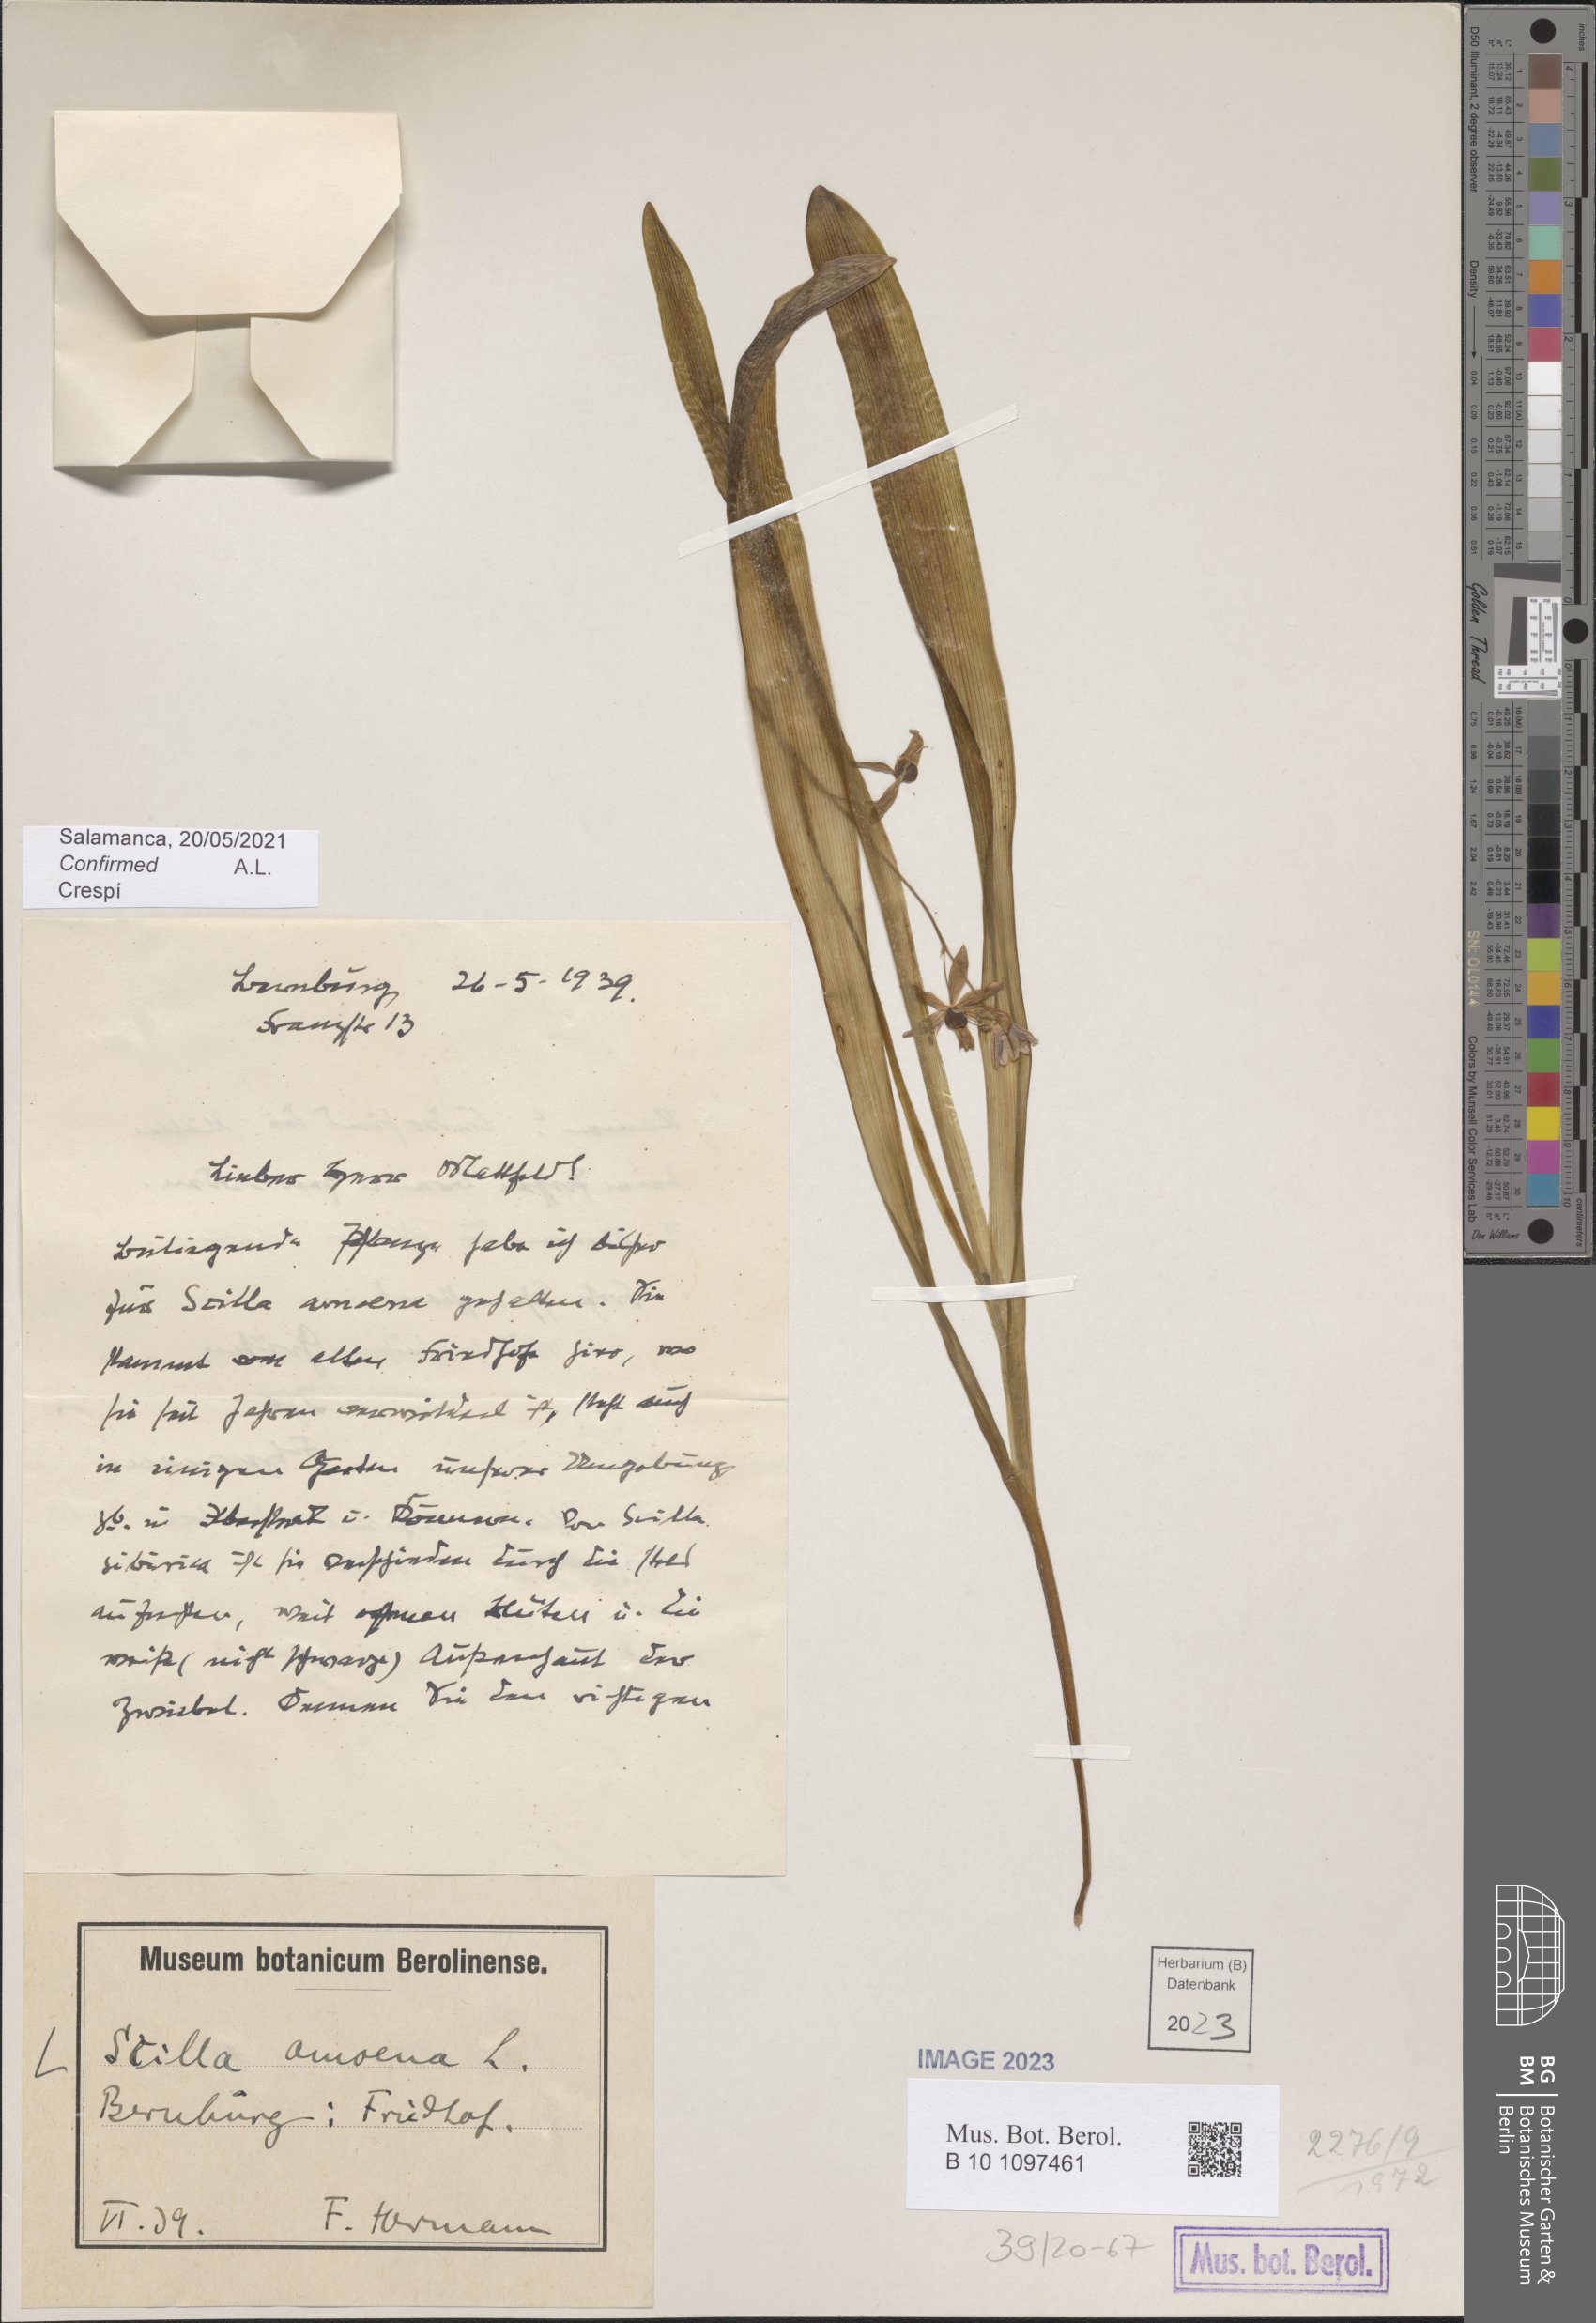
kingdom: Plantae
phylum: Tracheophyta
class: Liliopsida
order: Asparagales
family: Asparagaceae
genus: Scilla
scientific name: Scilla amoena
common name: Star-hyacinth
